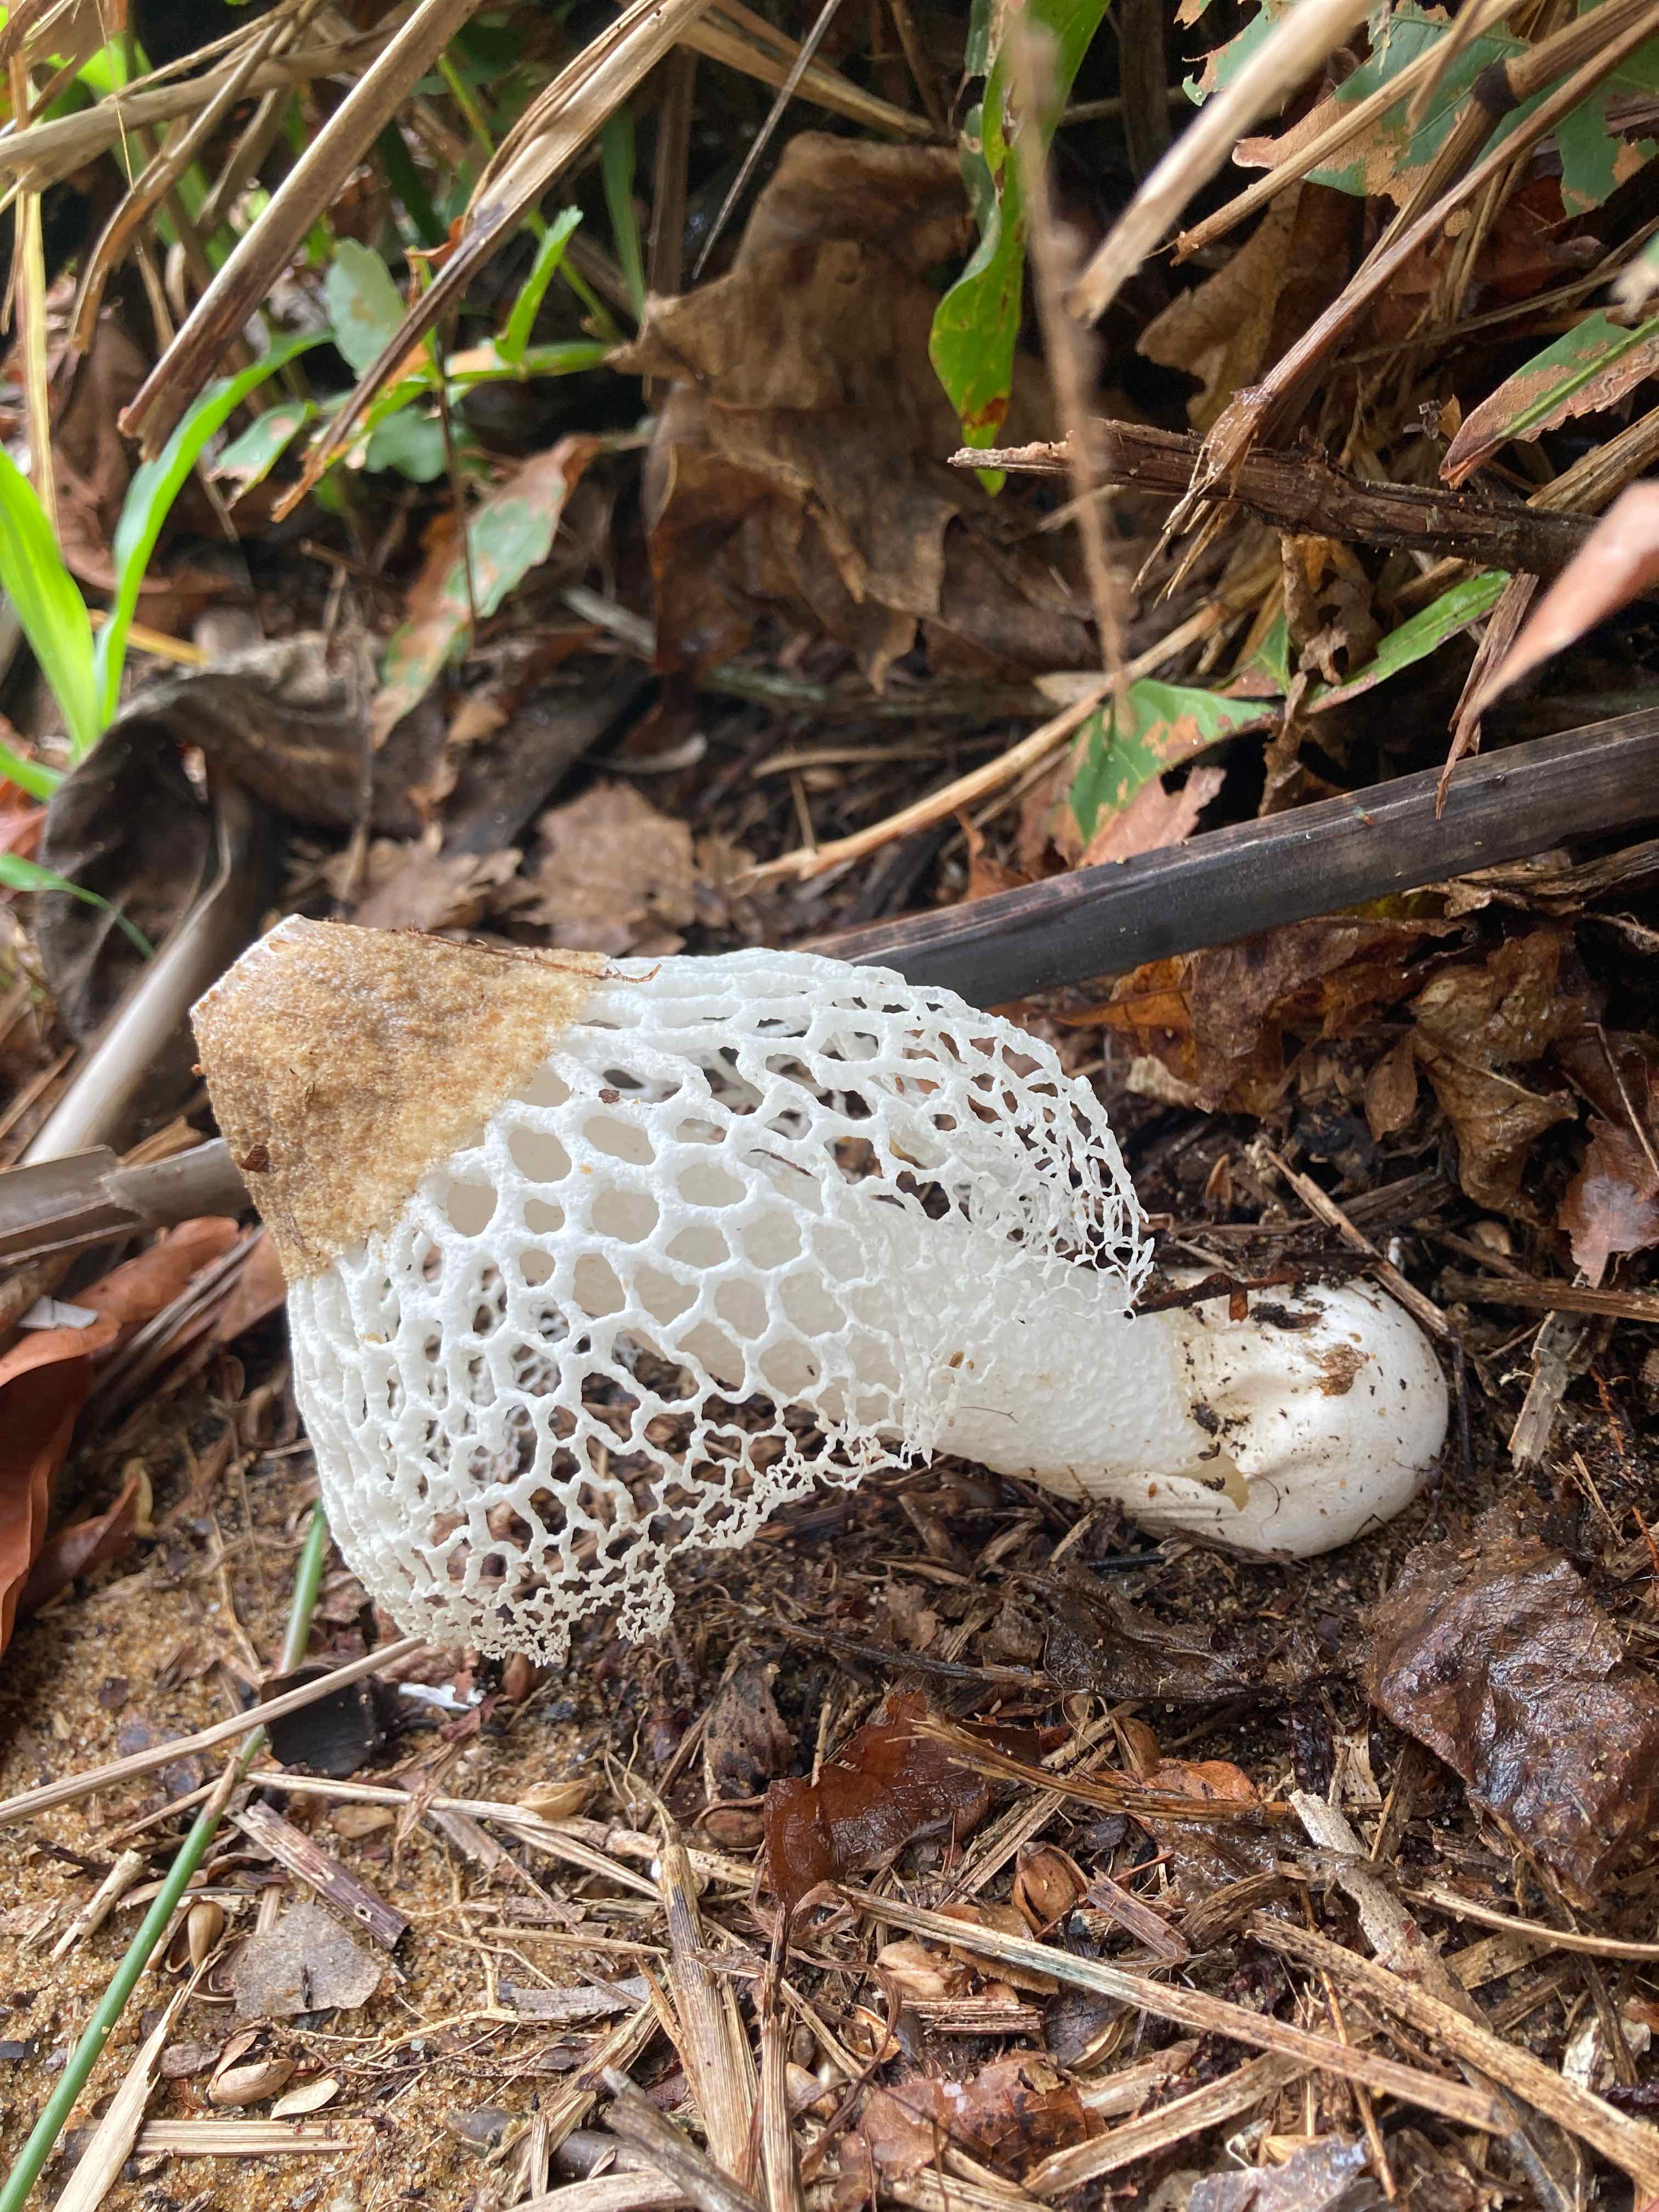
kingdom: Fungi
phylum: Basidiomycota
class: Agaricomycetes
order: Phallales
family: Phallaceae
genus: Phallus
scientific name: Phallus merulinus
